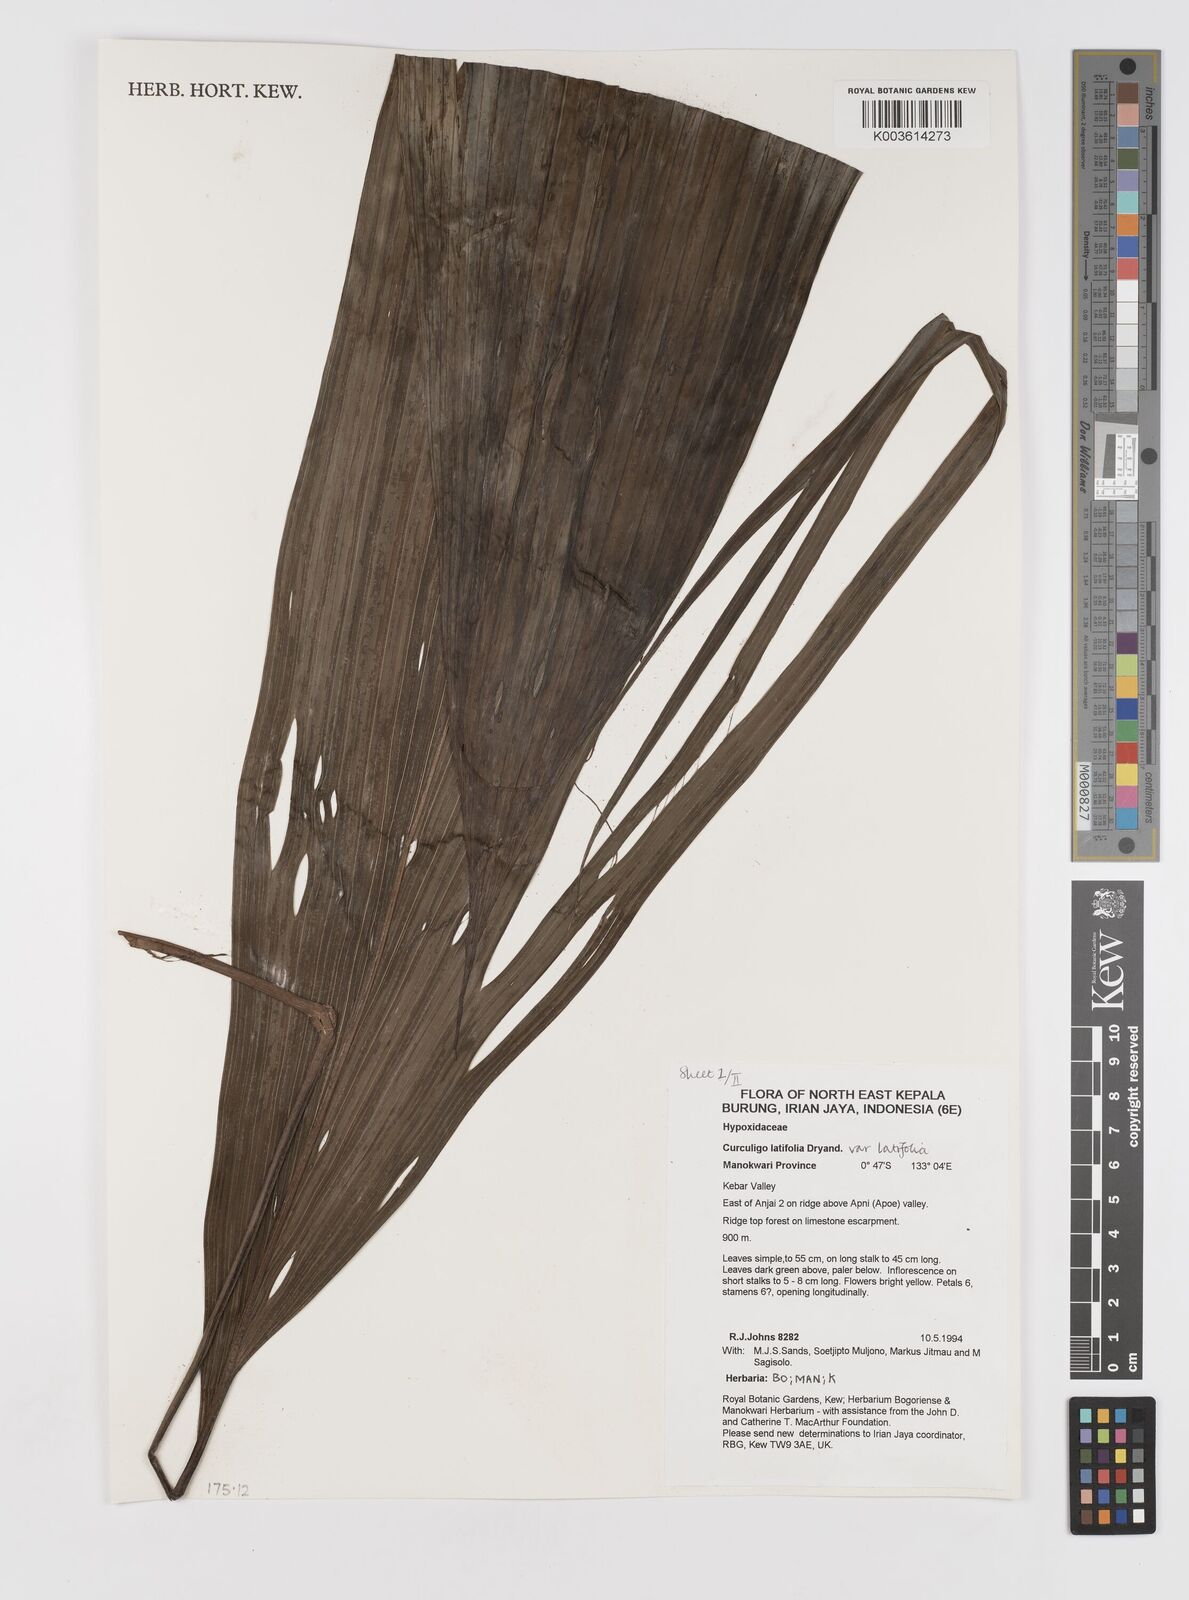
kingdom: Plantae
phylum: Tracheophyta
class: Liliopsida
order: Asparagales
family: Hypoxidaceae
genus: Curculigo
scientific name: Curculigo latifolia
